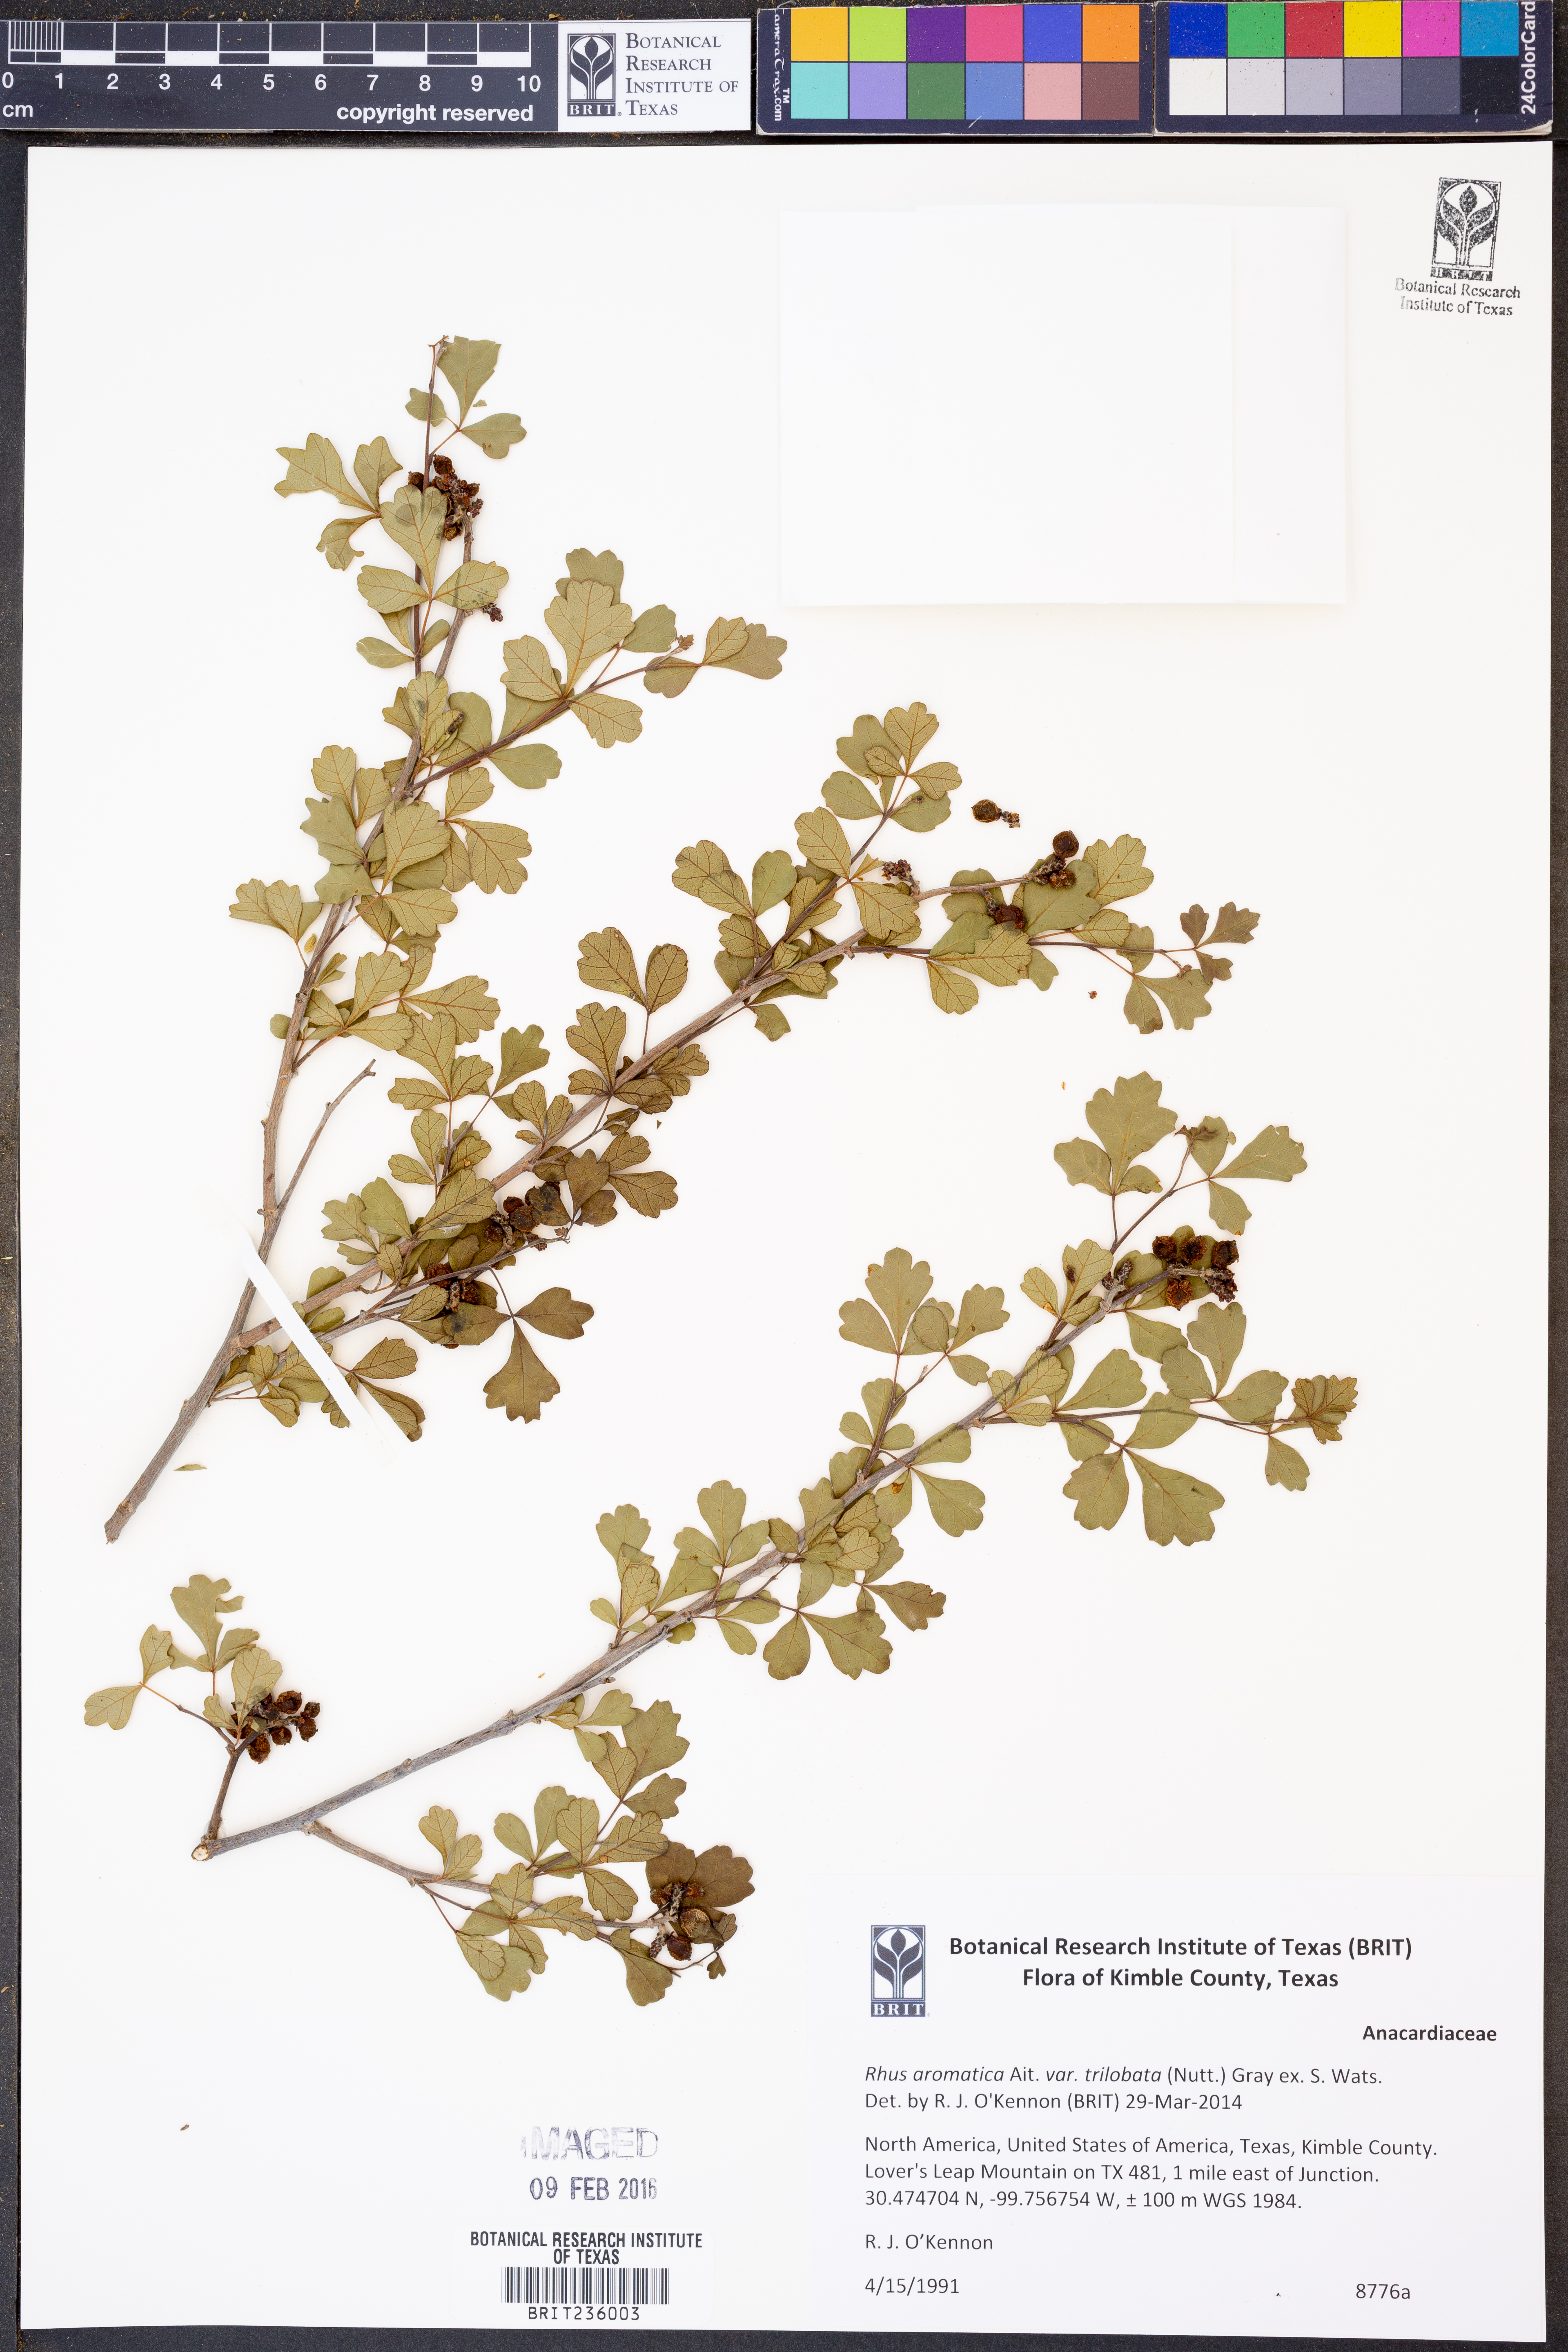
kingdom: Plantae
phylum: Tracheophyta
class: Magnoliopsida
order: Sapindales
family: Anacardiaceae
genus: Rhus
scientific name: Rhus trilobata
